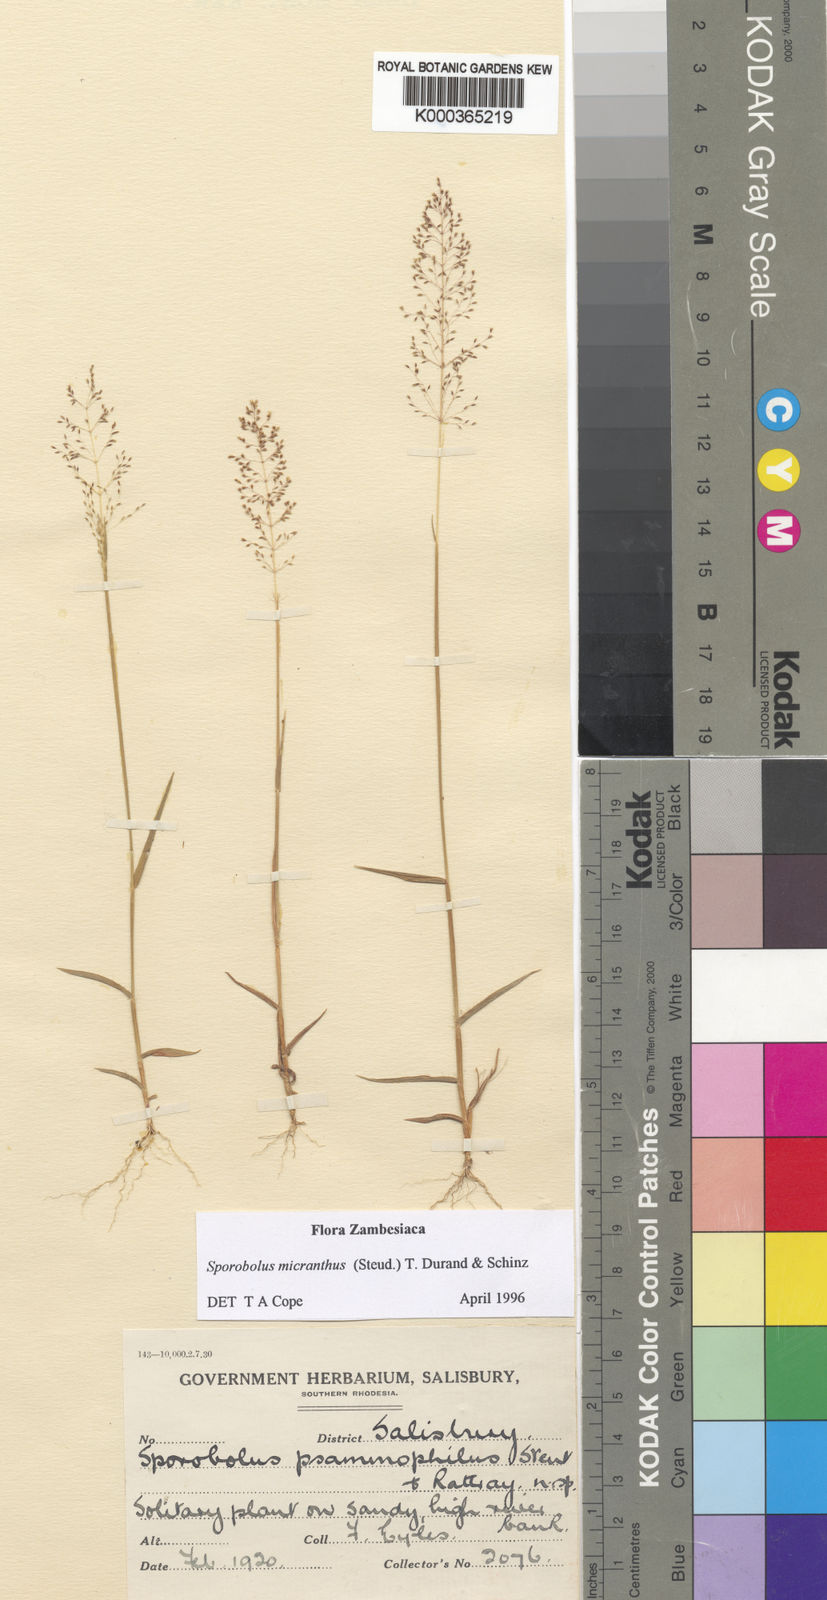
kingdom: Plantae
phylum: Tracheophyta
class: Liliopsida
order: Poales
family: Poaceae
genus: Sporobolus
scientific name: Sporobolus micranthus
